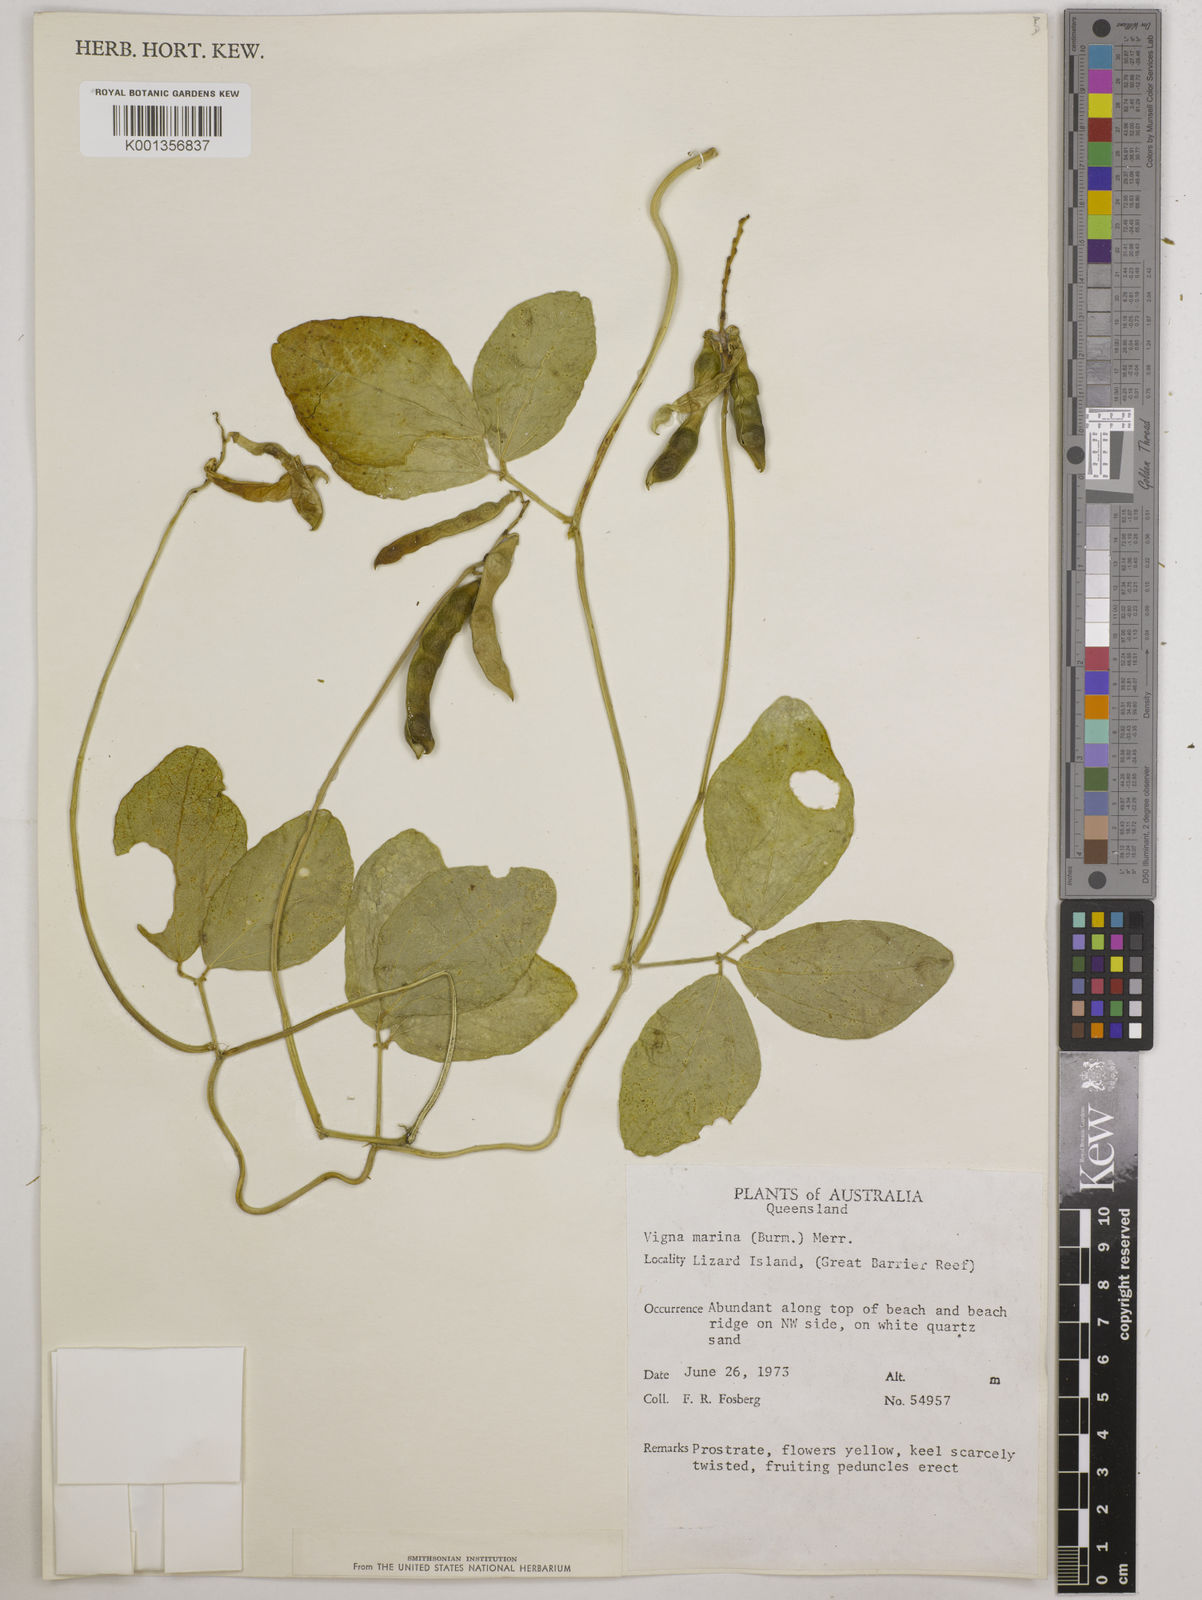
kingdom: Plantae
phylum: Tracheophyta
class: Magnoliopsida
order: Fabales
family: Fabaceae
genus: Vigna
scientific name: Vigna marina
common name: Dune-bean
